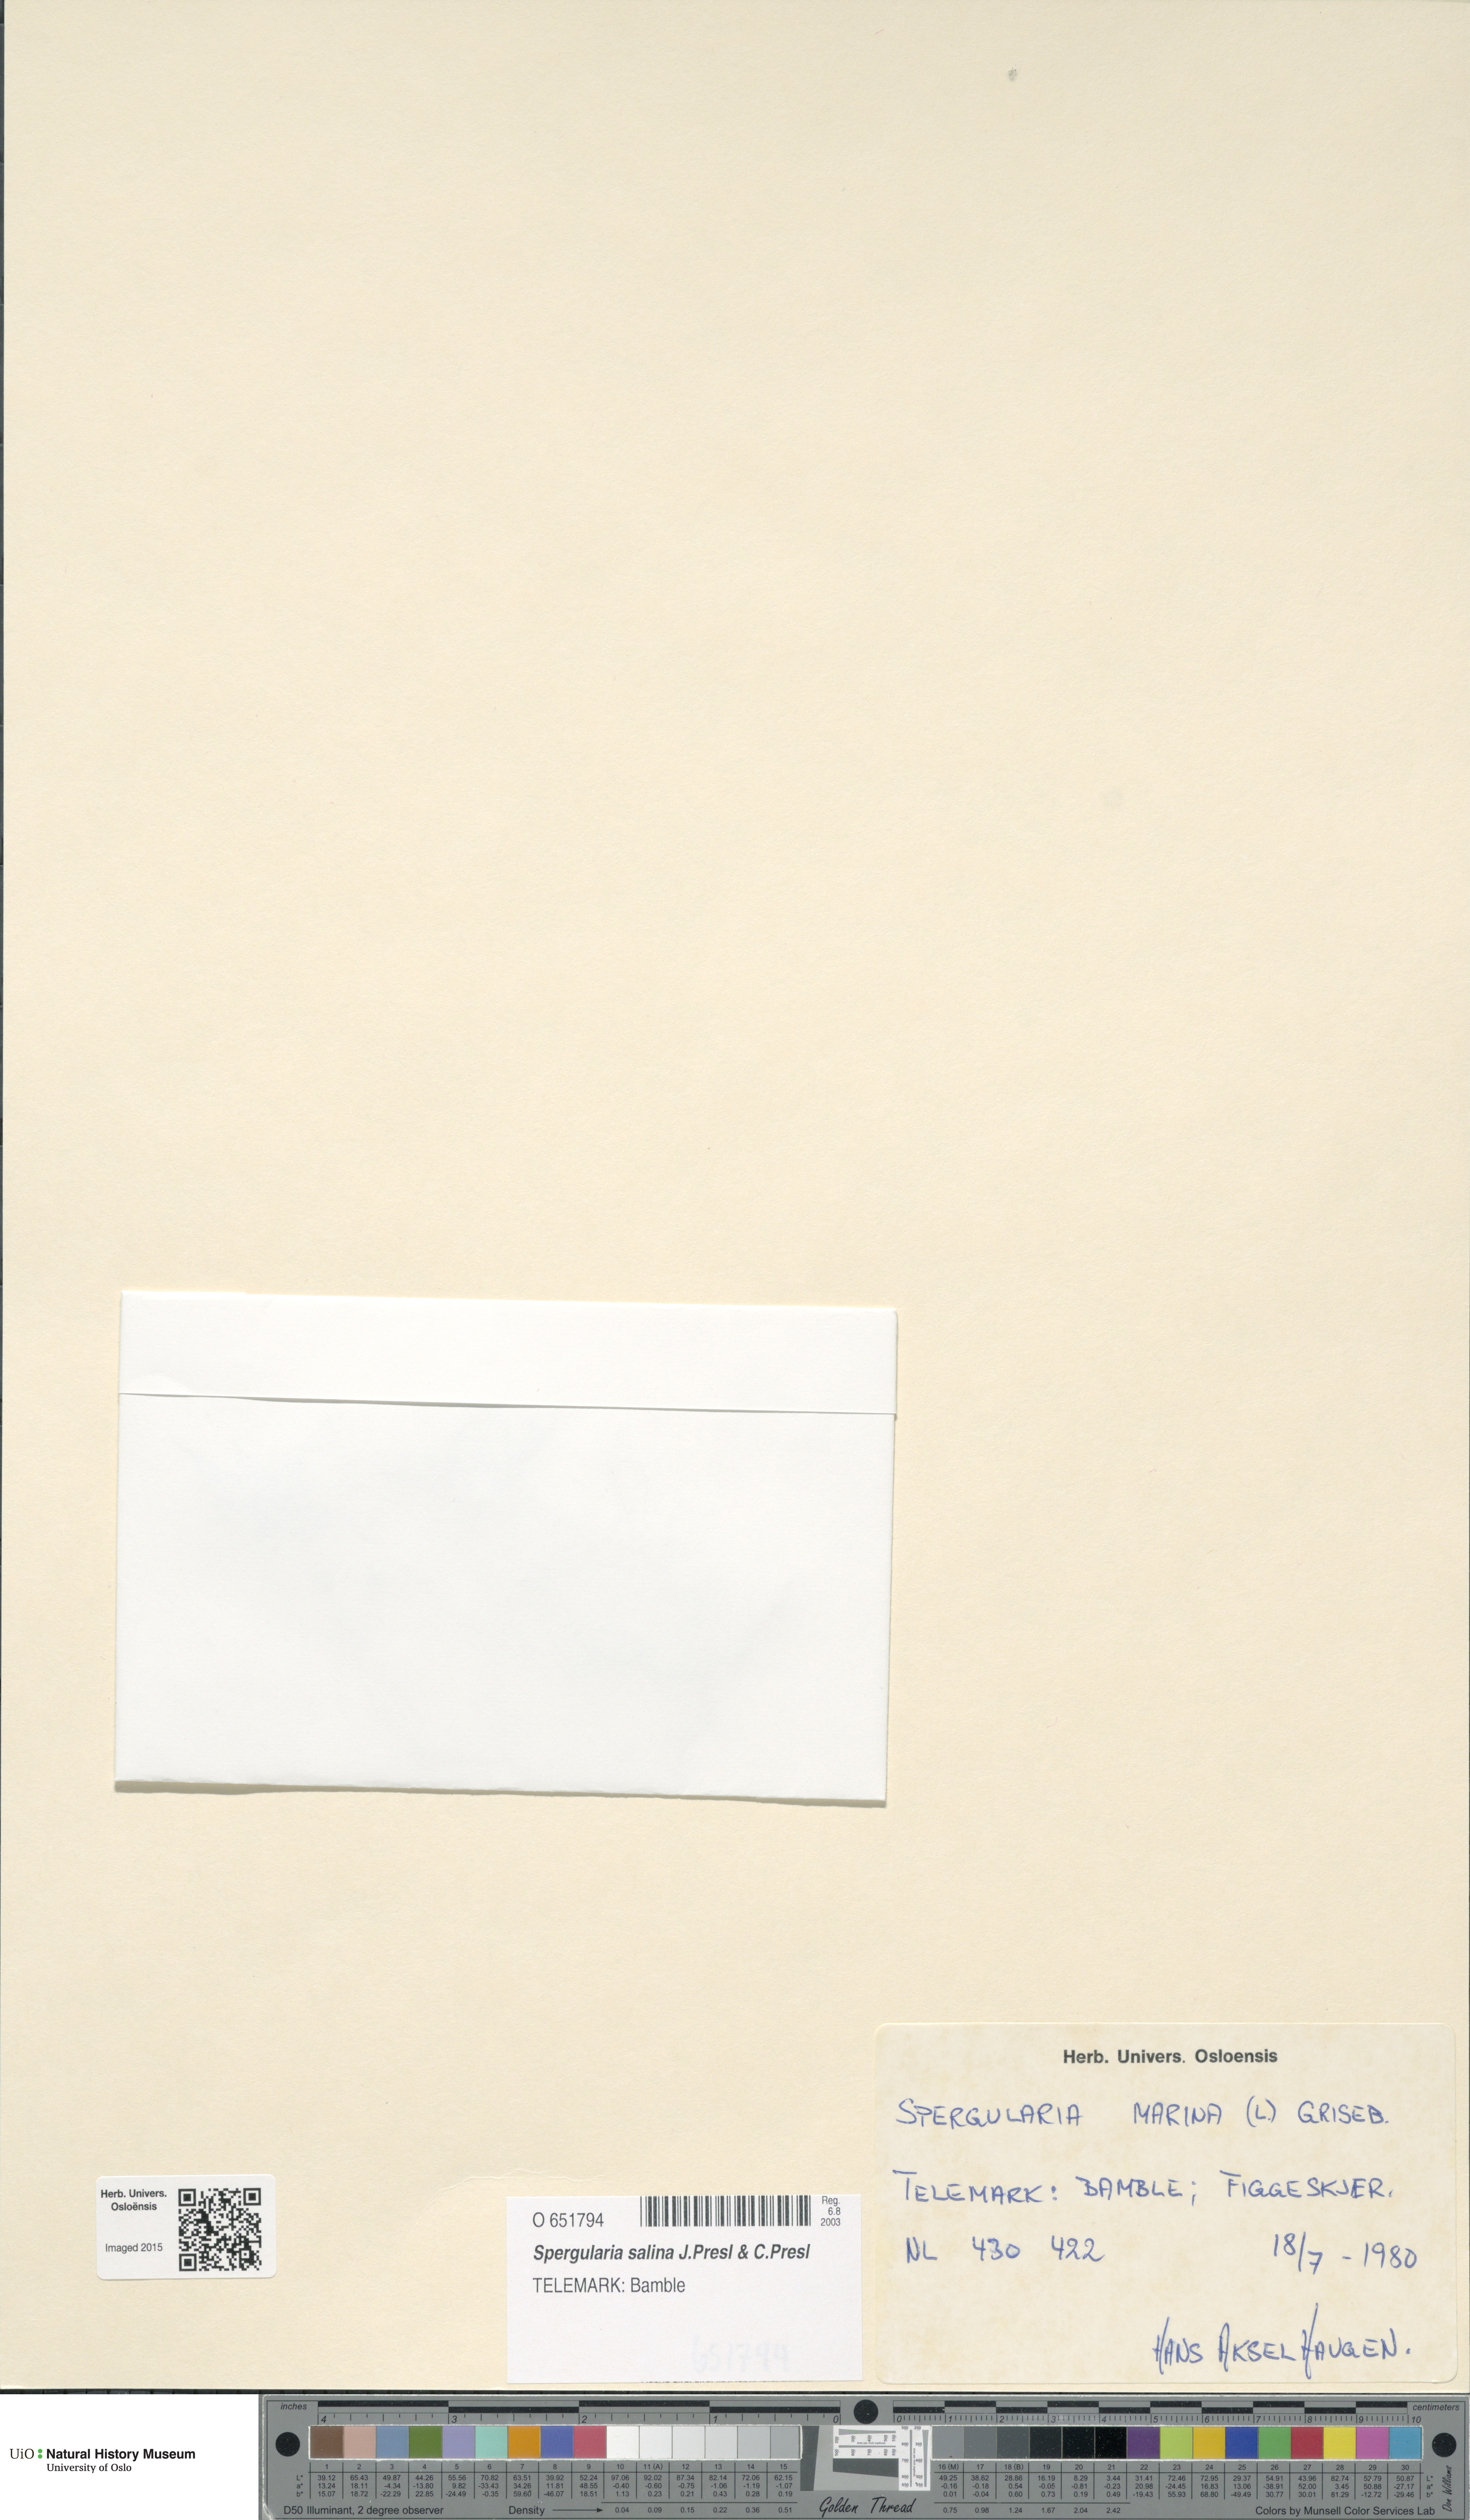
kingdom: Plantae
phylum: Tracheophyta
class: Magnoliopsida
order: Caryophyllales
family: Caryophyllaceae
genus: Spergularia
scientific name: Spergularia marina
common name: Lesser sea-spurrey
